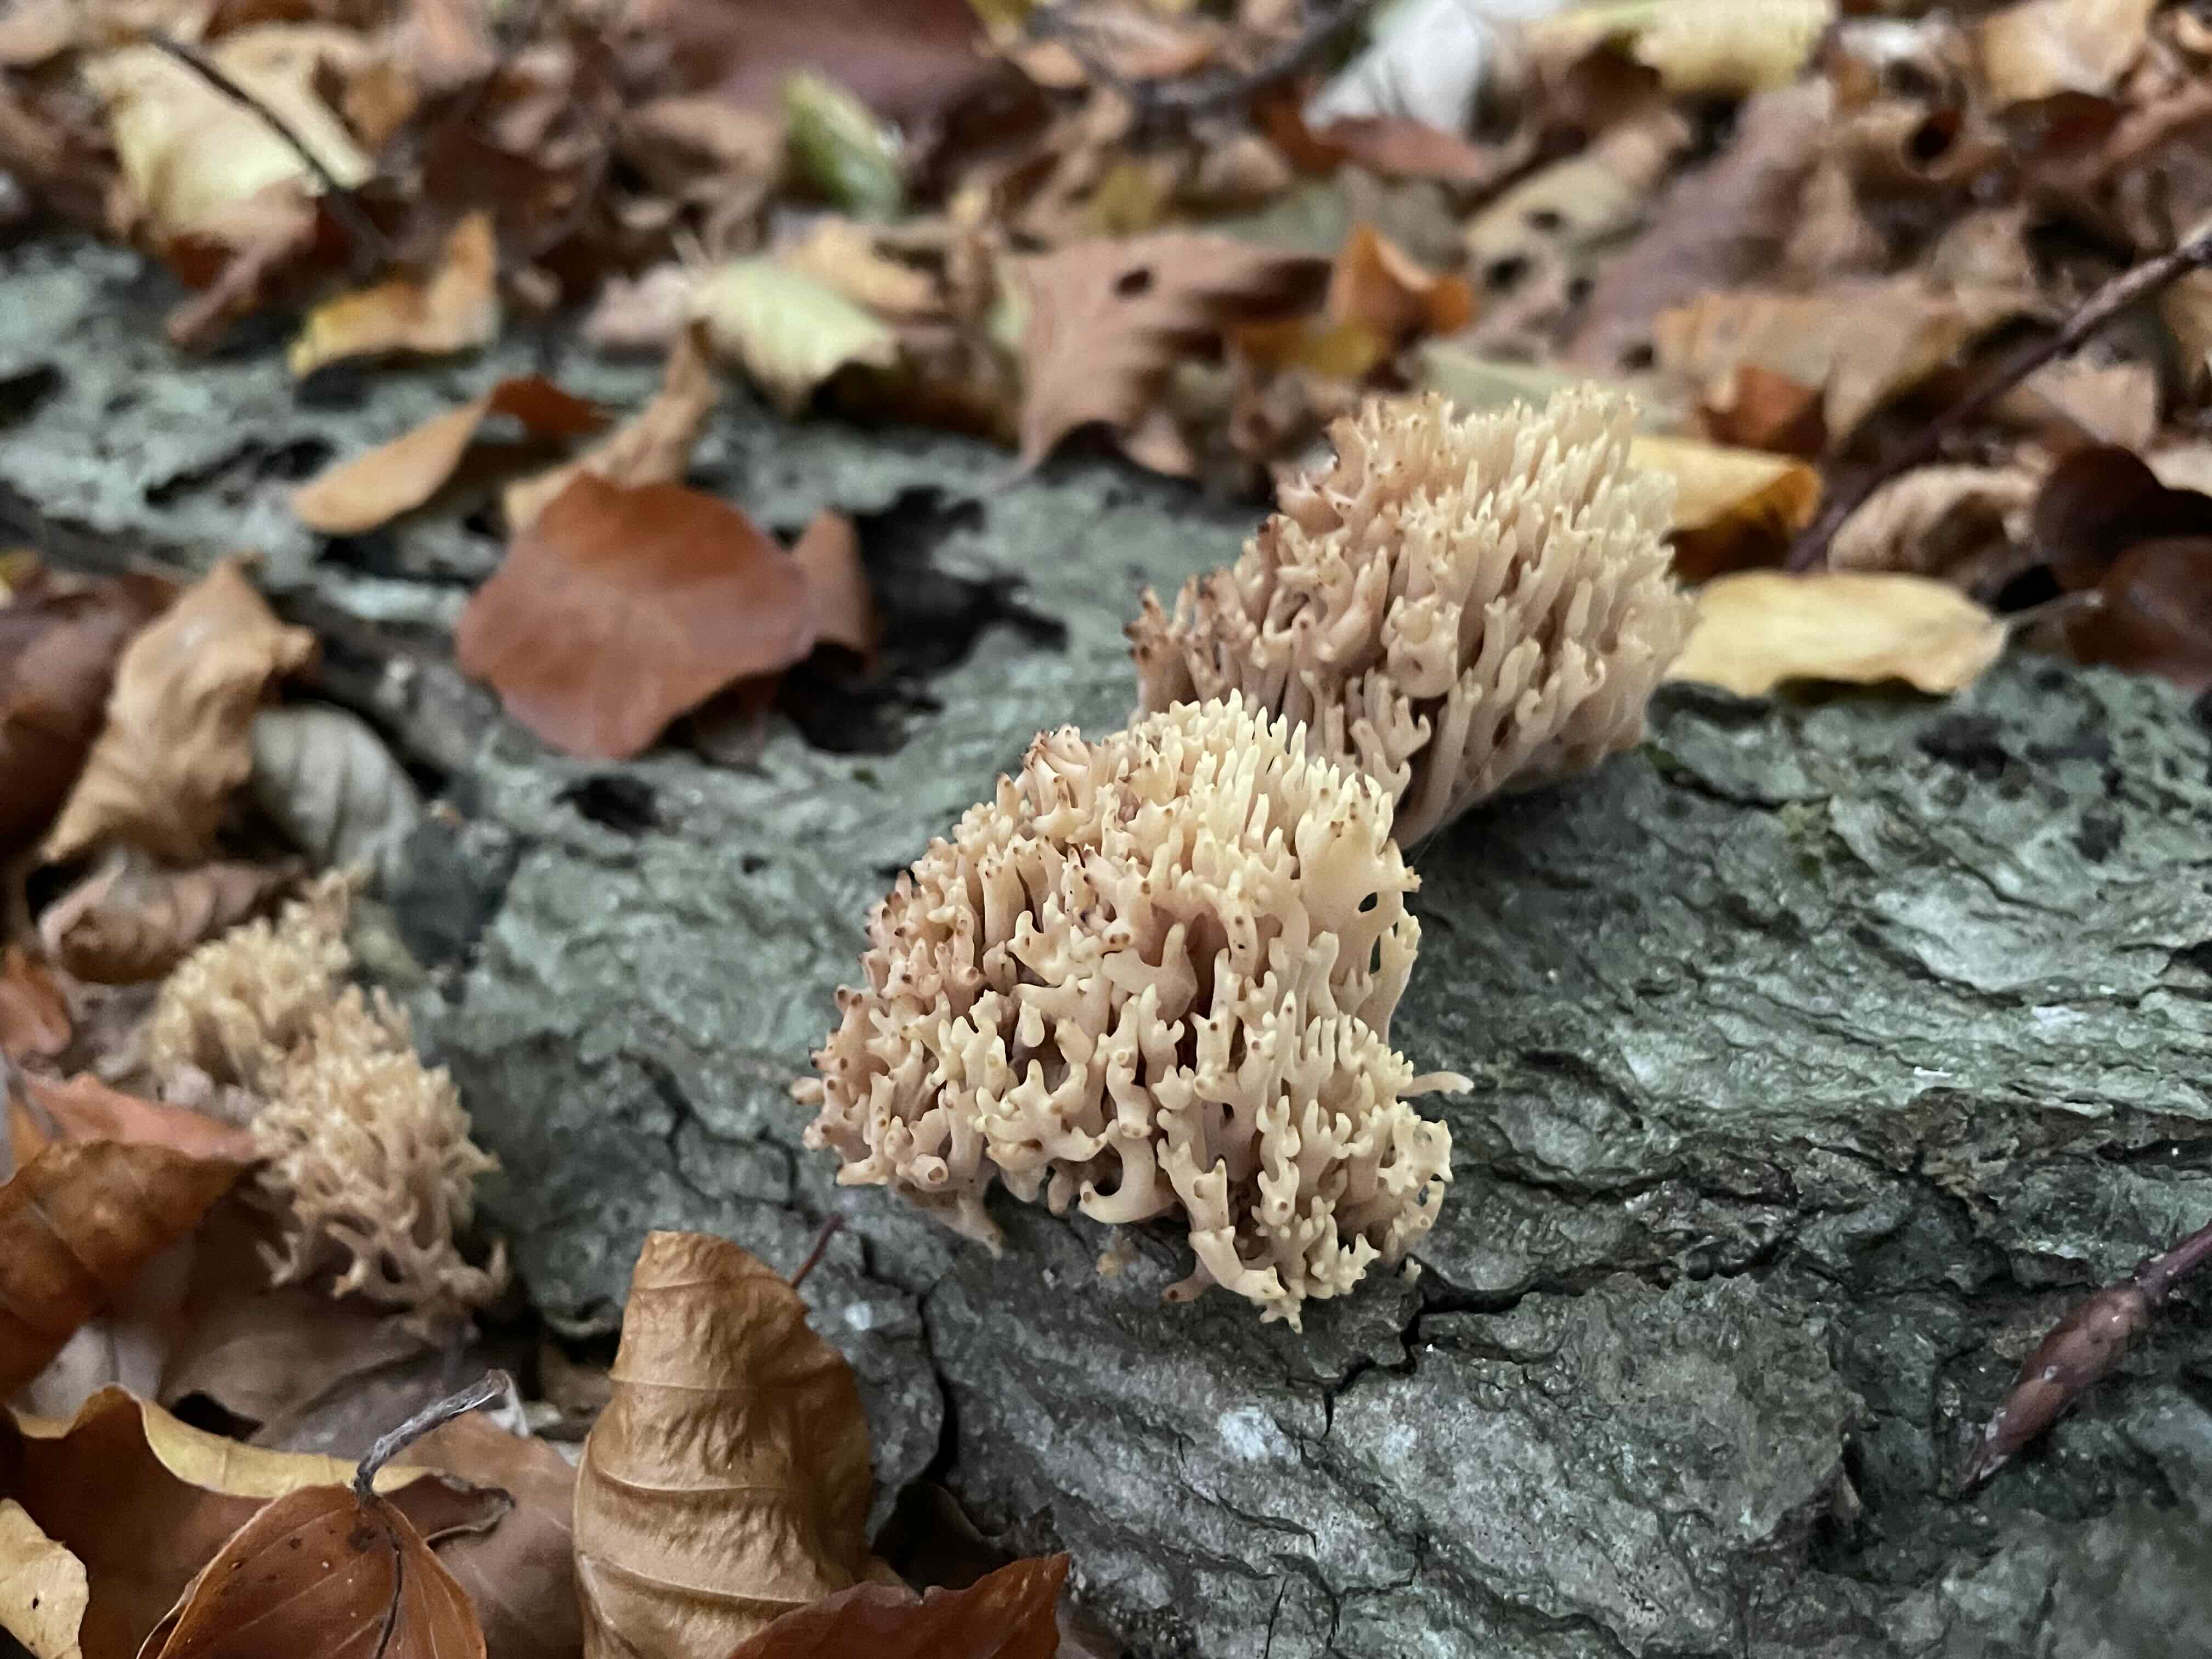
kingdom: Fungi
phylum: Basidiomycota
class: Agaricomycetes
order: Gomphales
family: Gomphaceae
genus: Ramaria
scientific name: Ramaria stricta
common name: rank koralsvamp
